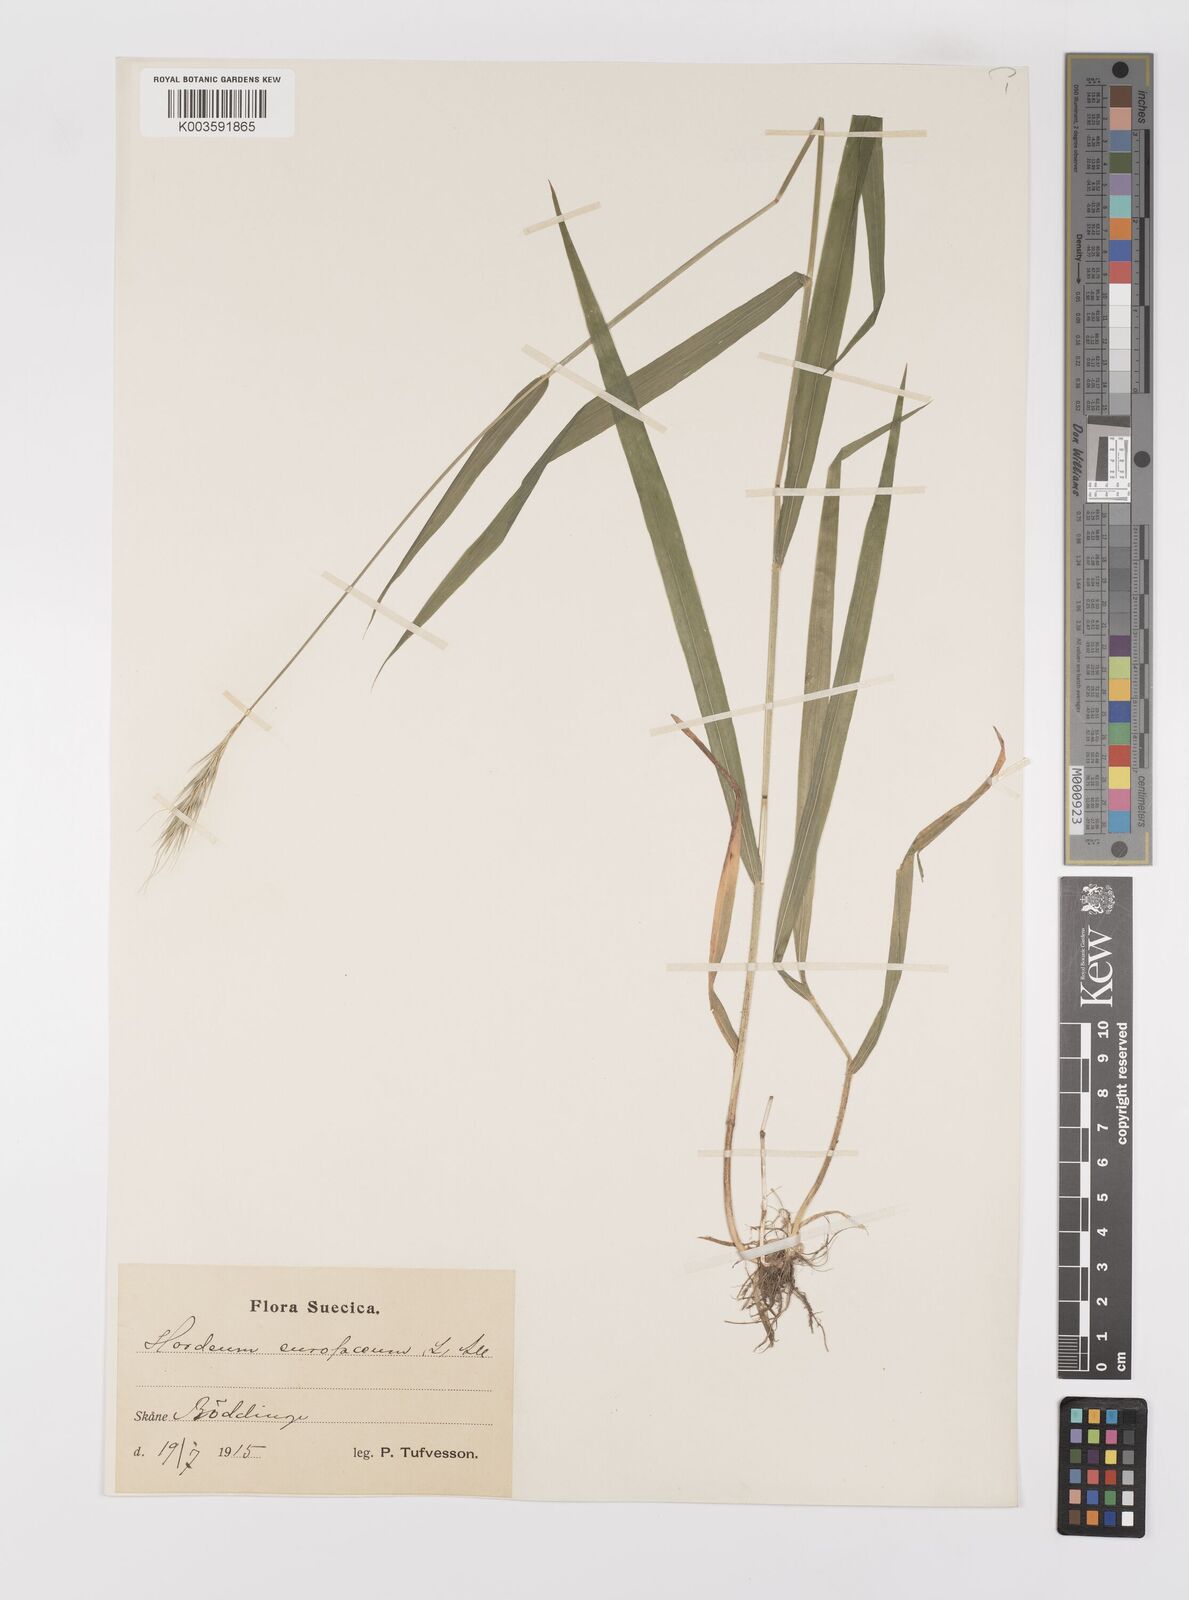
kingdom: Plantae
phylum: Tracheophyta
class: Liliopsida
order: Poales
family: Poaceae
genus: Hordelymus
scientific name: Hordelymus europaeus
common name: Wood-barley
